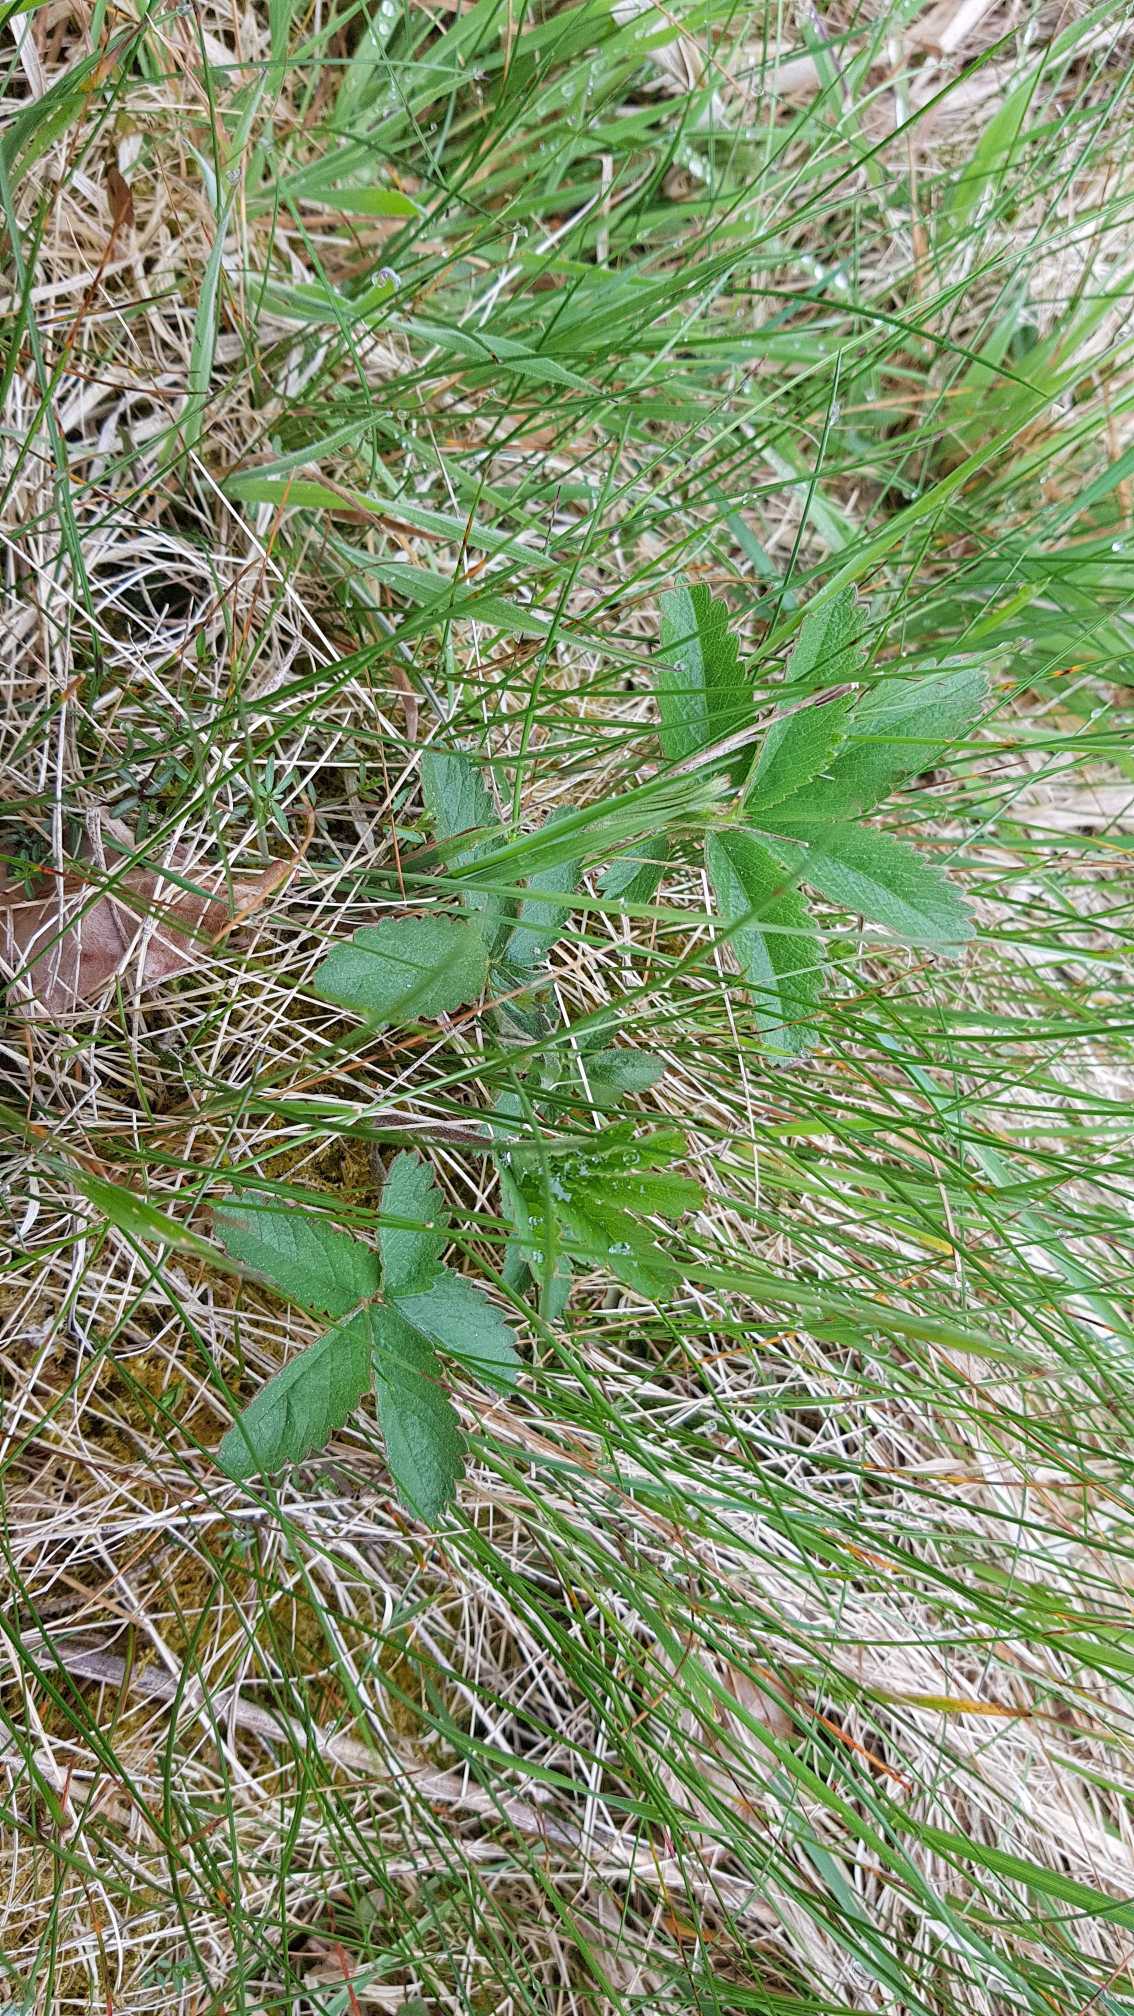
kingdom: Plantae
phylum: Tracheophyta
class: Magnoliopsida
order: Rosales
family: Rosaceae
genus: Comarum
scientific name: Comarum palustre
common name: Kragefod
